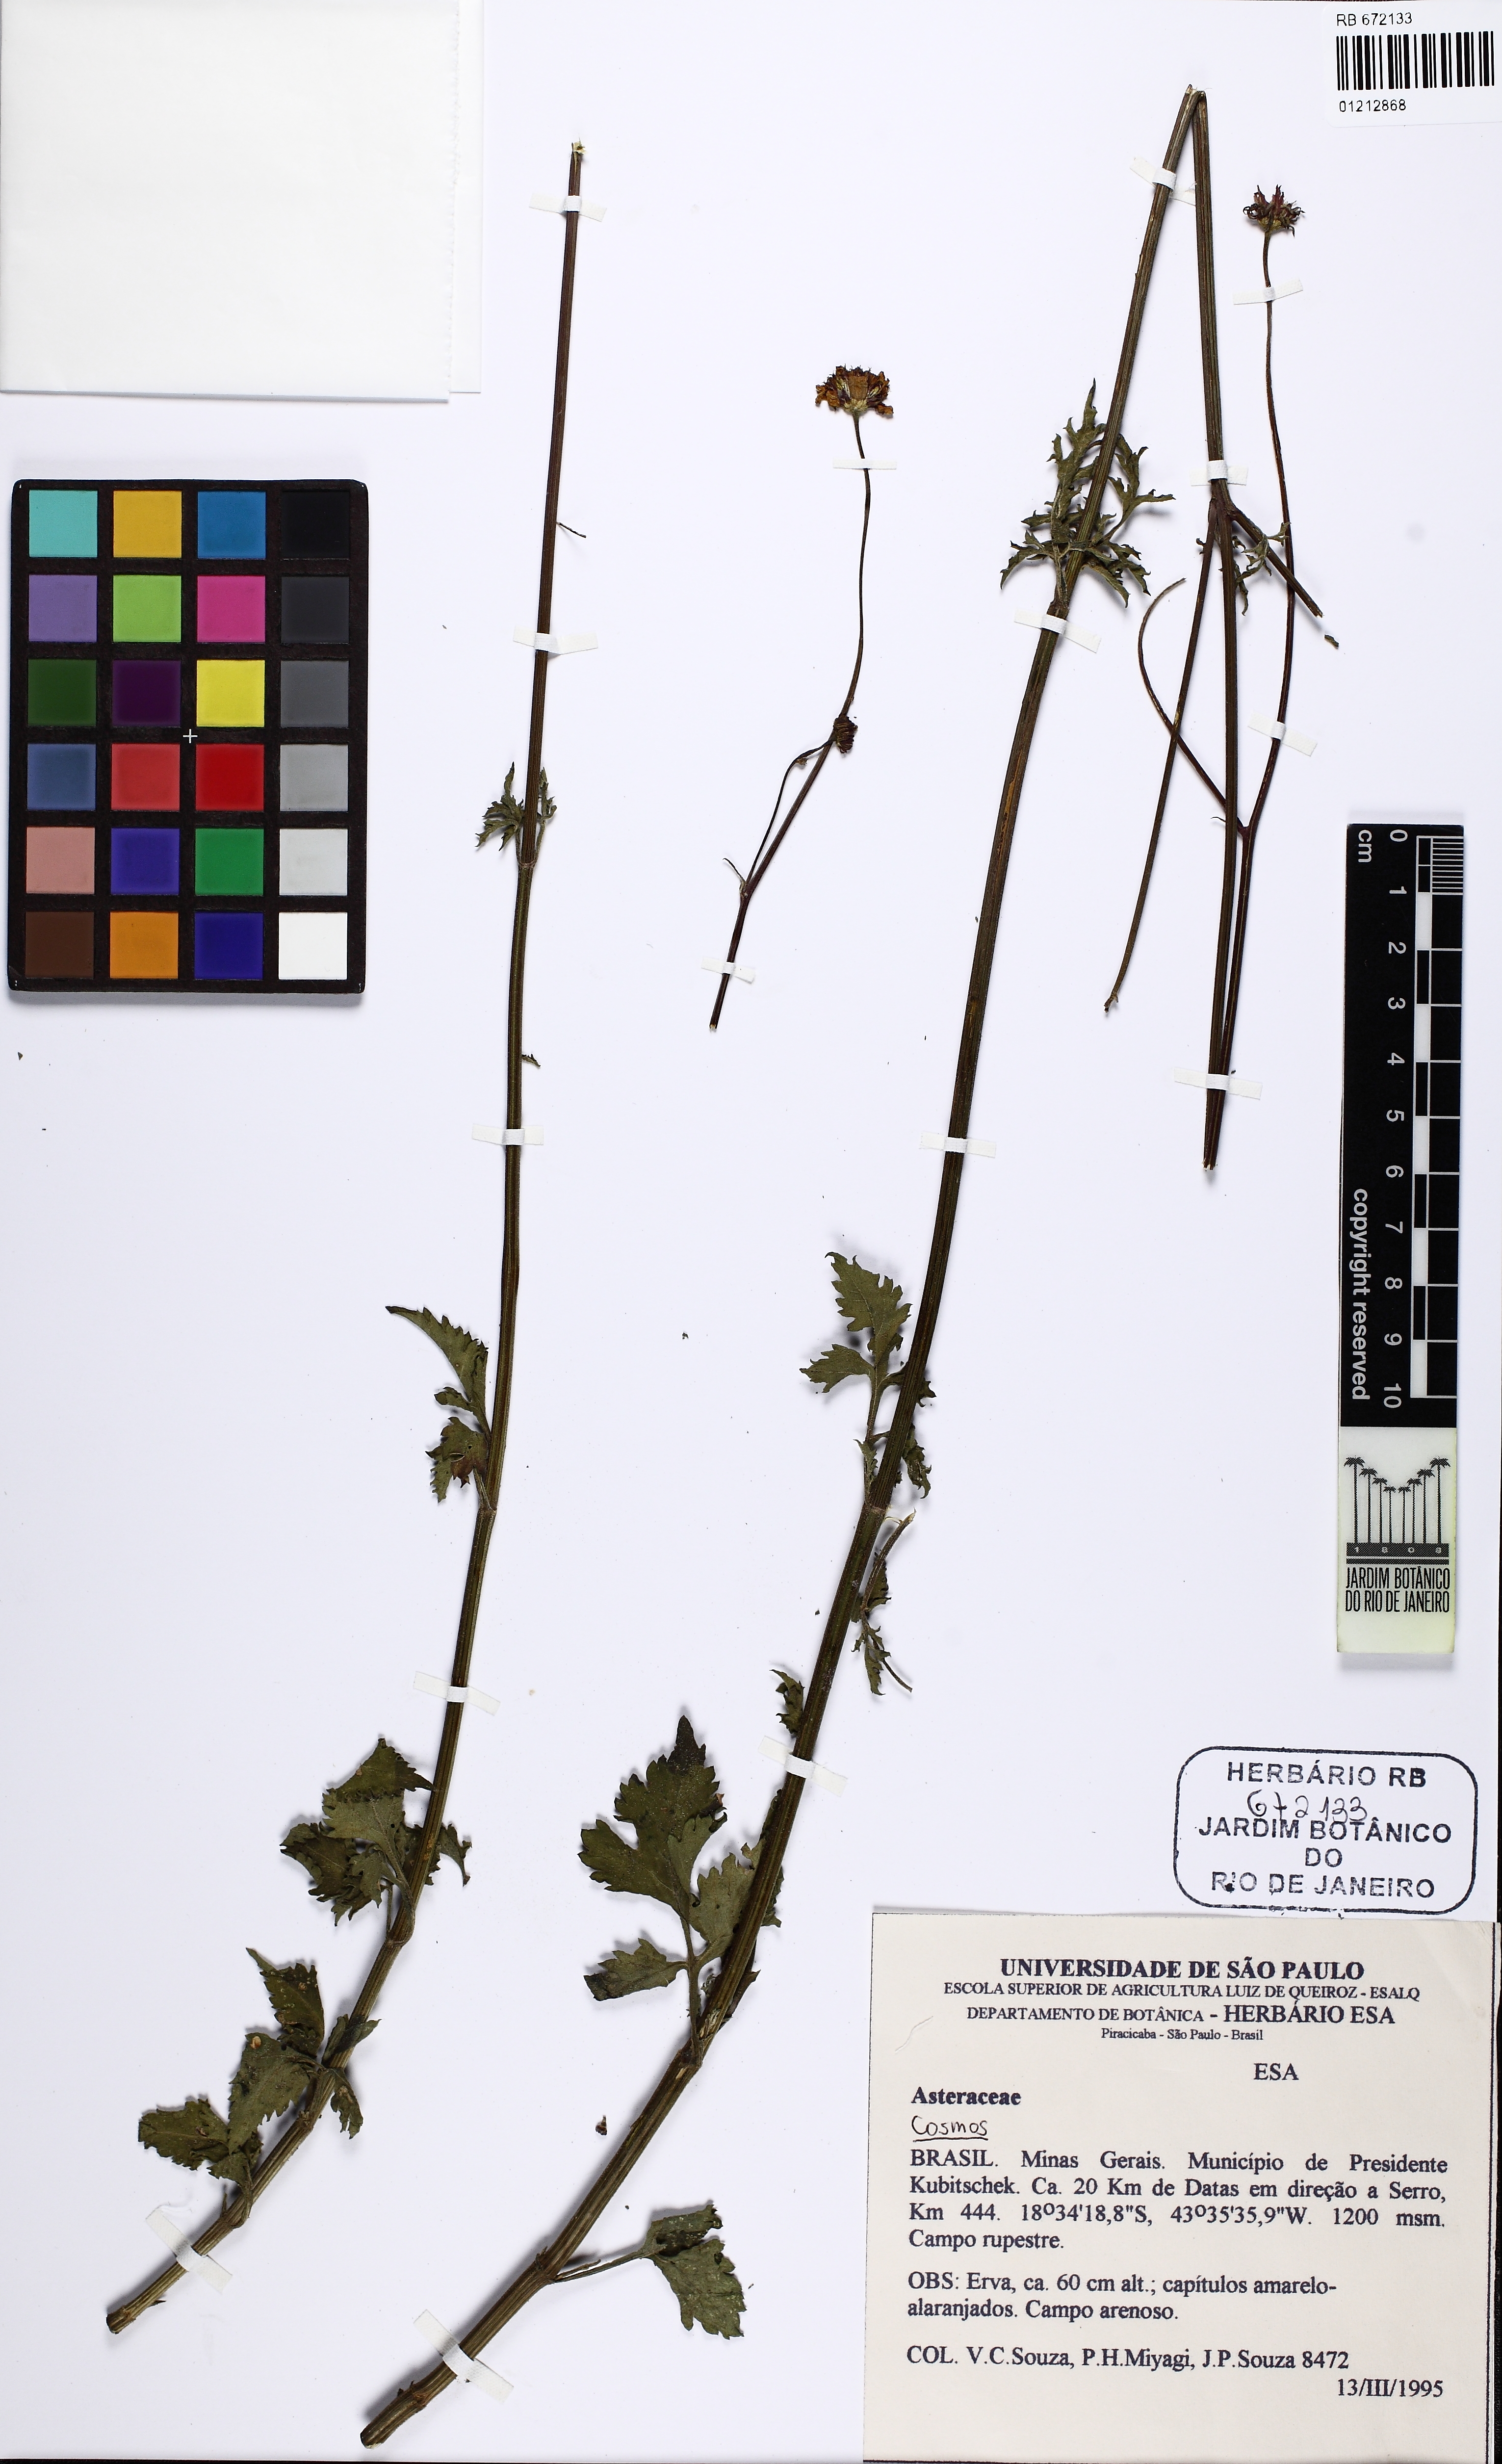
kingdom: Plantae
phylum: Tracheophyta
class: Magnoliopsida
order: Asterales
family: Asteraceae
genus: Cosmos
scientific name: Cosmos
